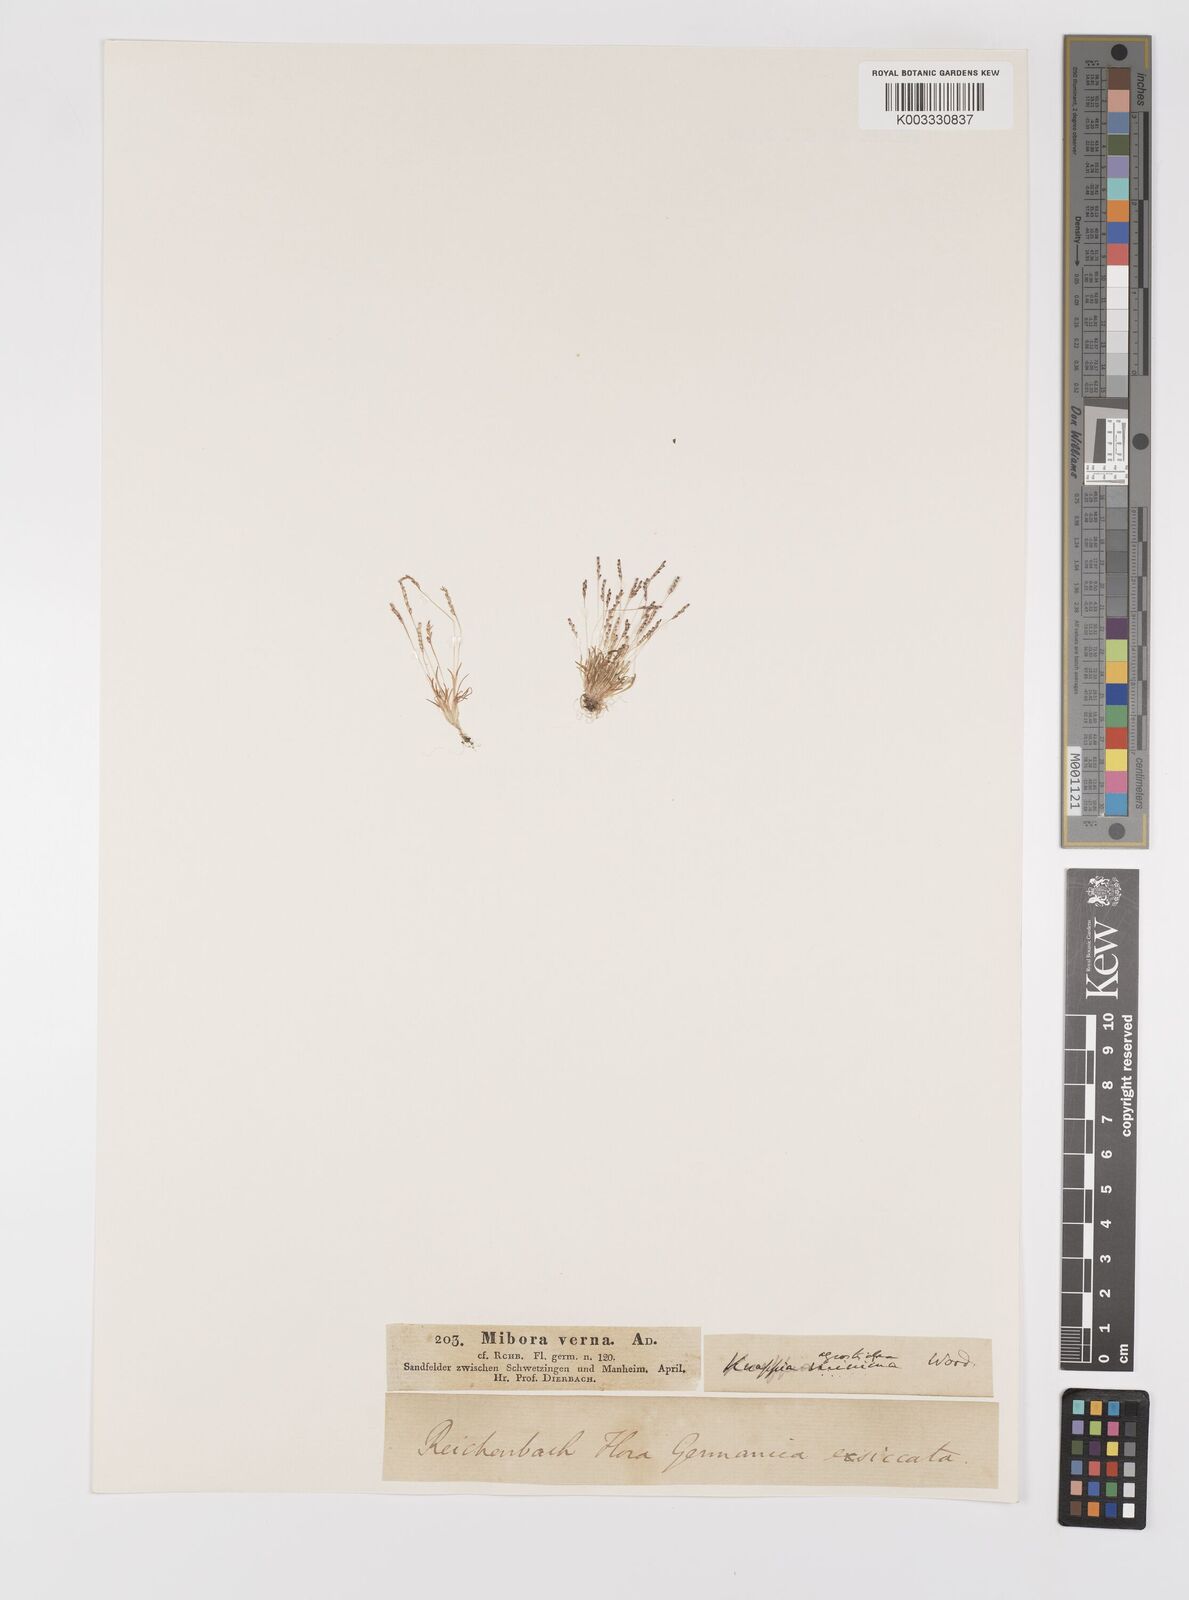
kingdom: Plantae
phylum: Tracheophyta
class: Liliopsida
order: Poales
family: Poaceae
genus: Mibora
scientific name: Mibora minima
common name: Early sand-grass
